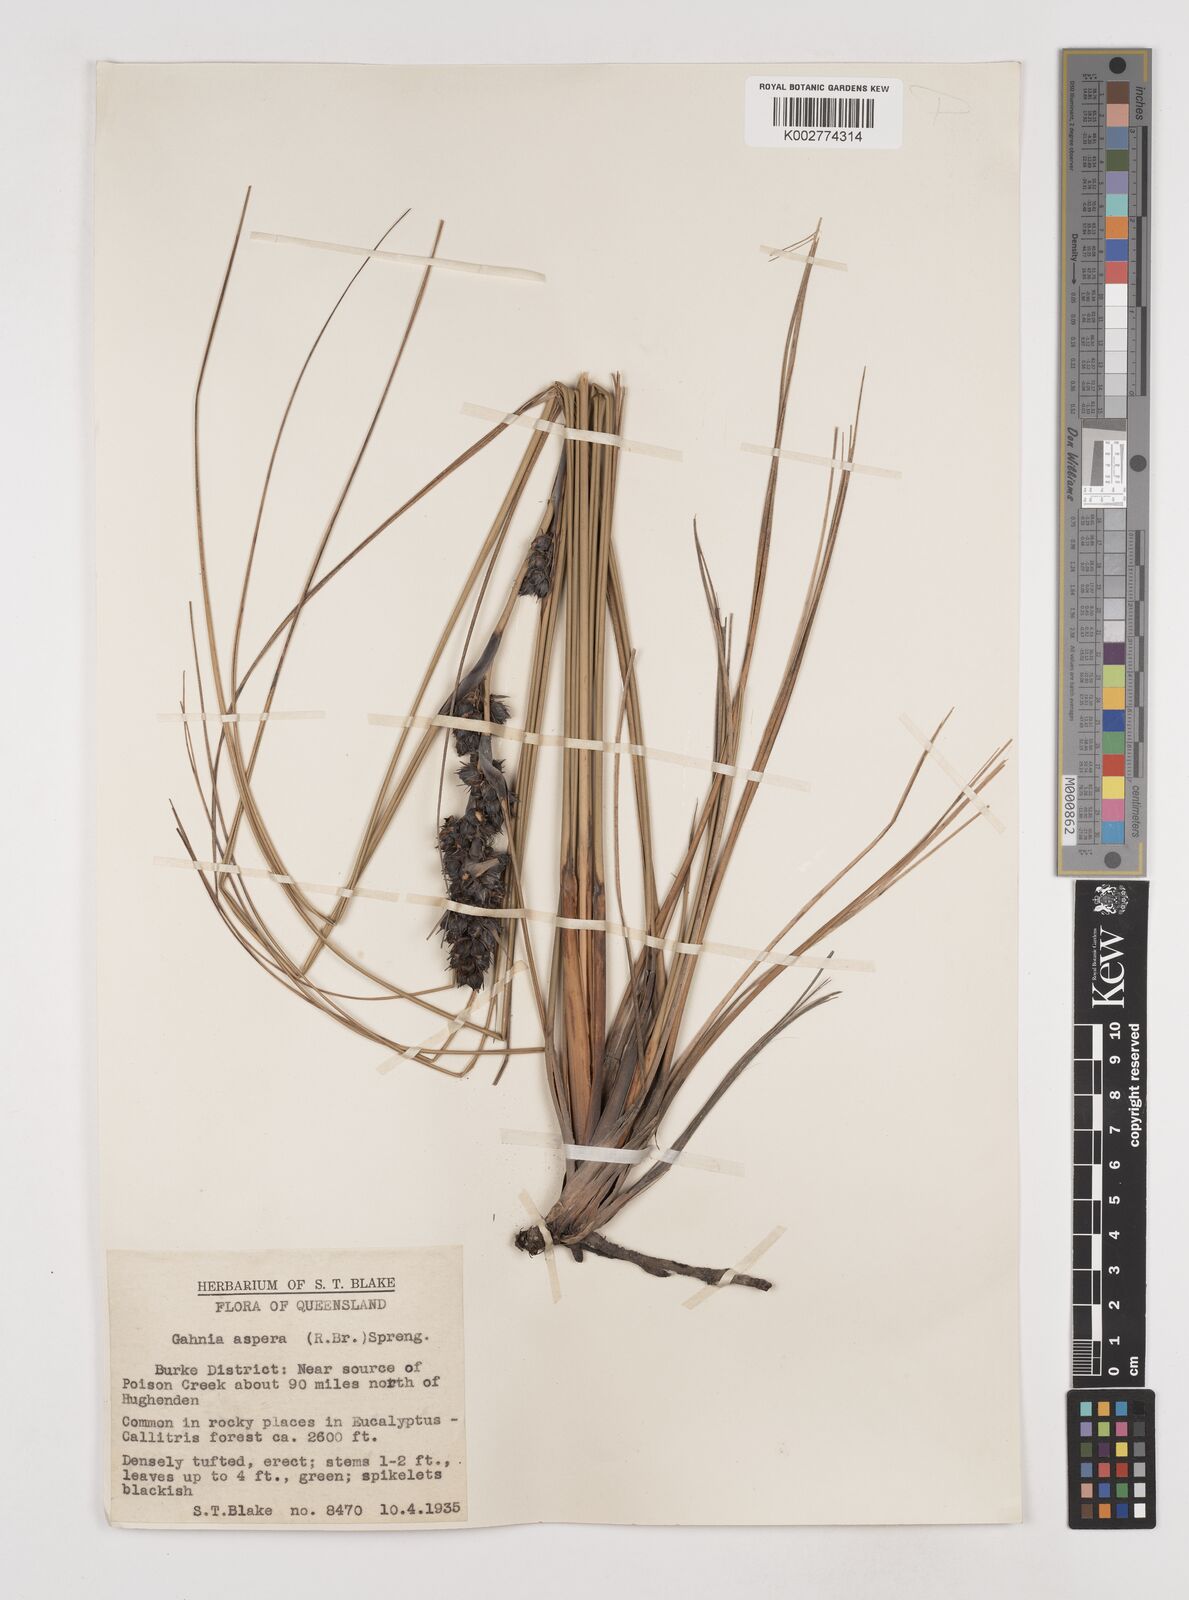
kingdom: Plantae
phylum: Tracheophyta
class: Liliopsida
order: Poales
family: Cyperaceae
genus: Gahnia
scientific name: Gahnia aspera
